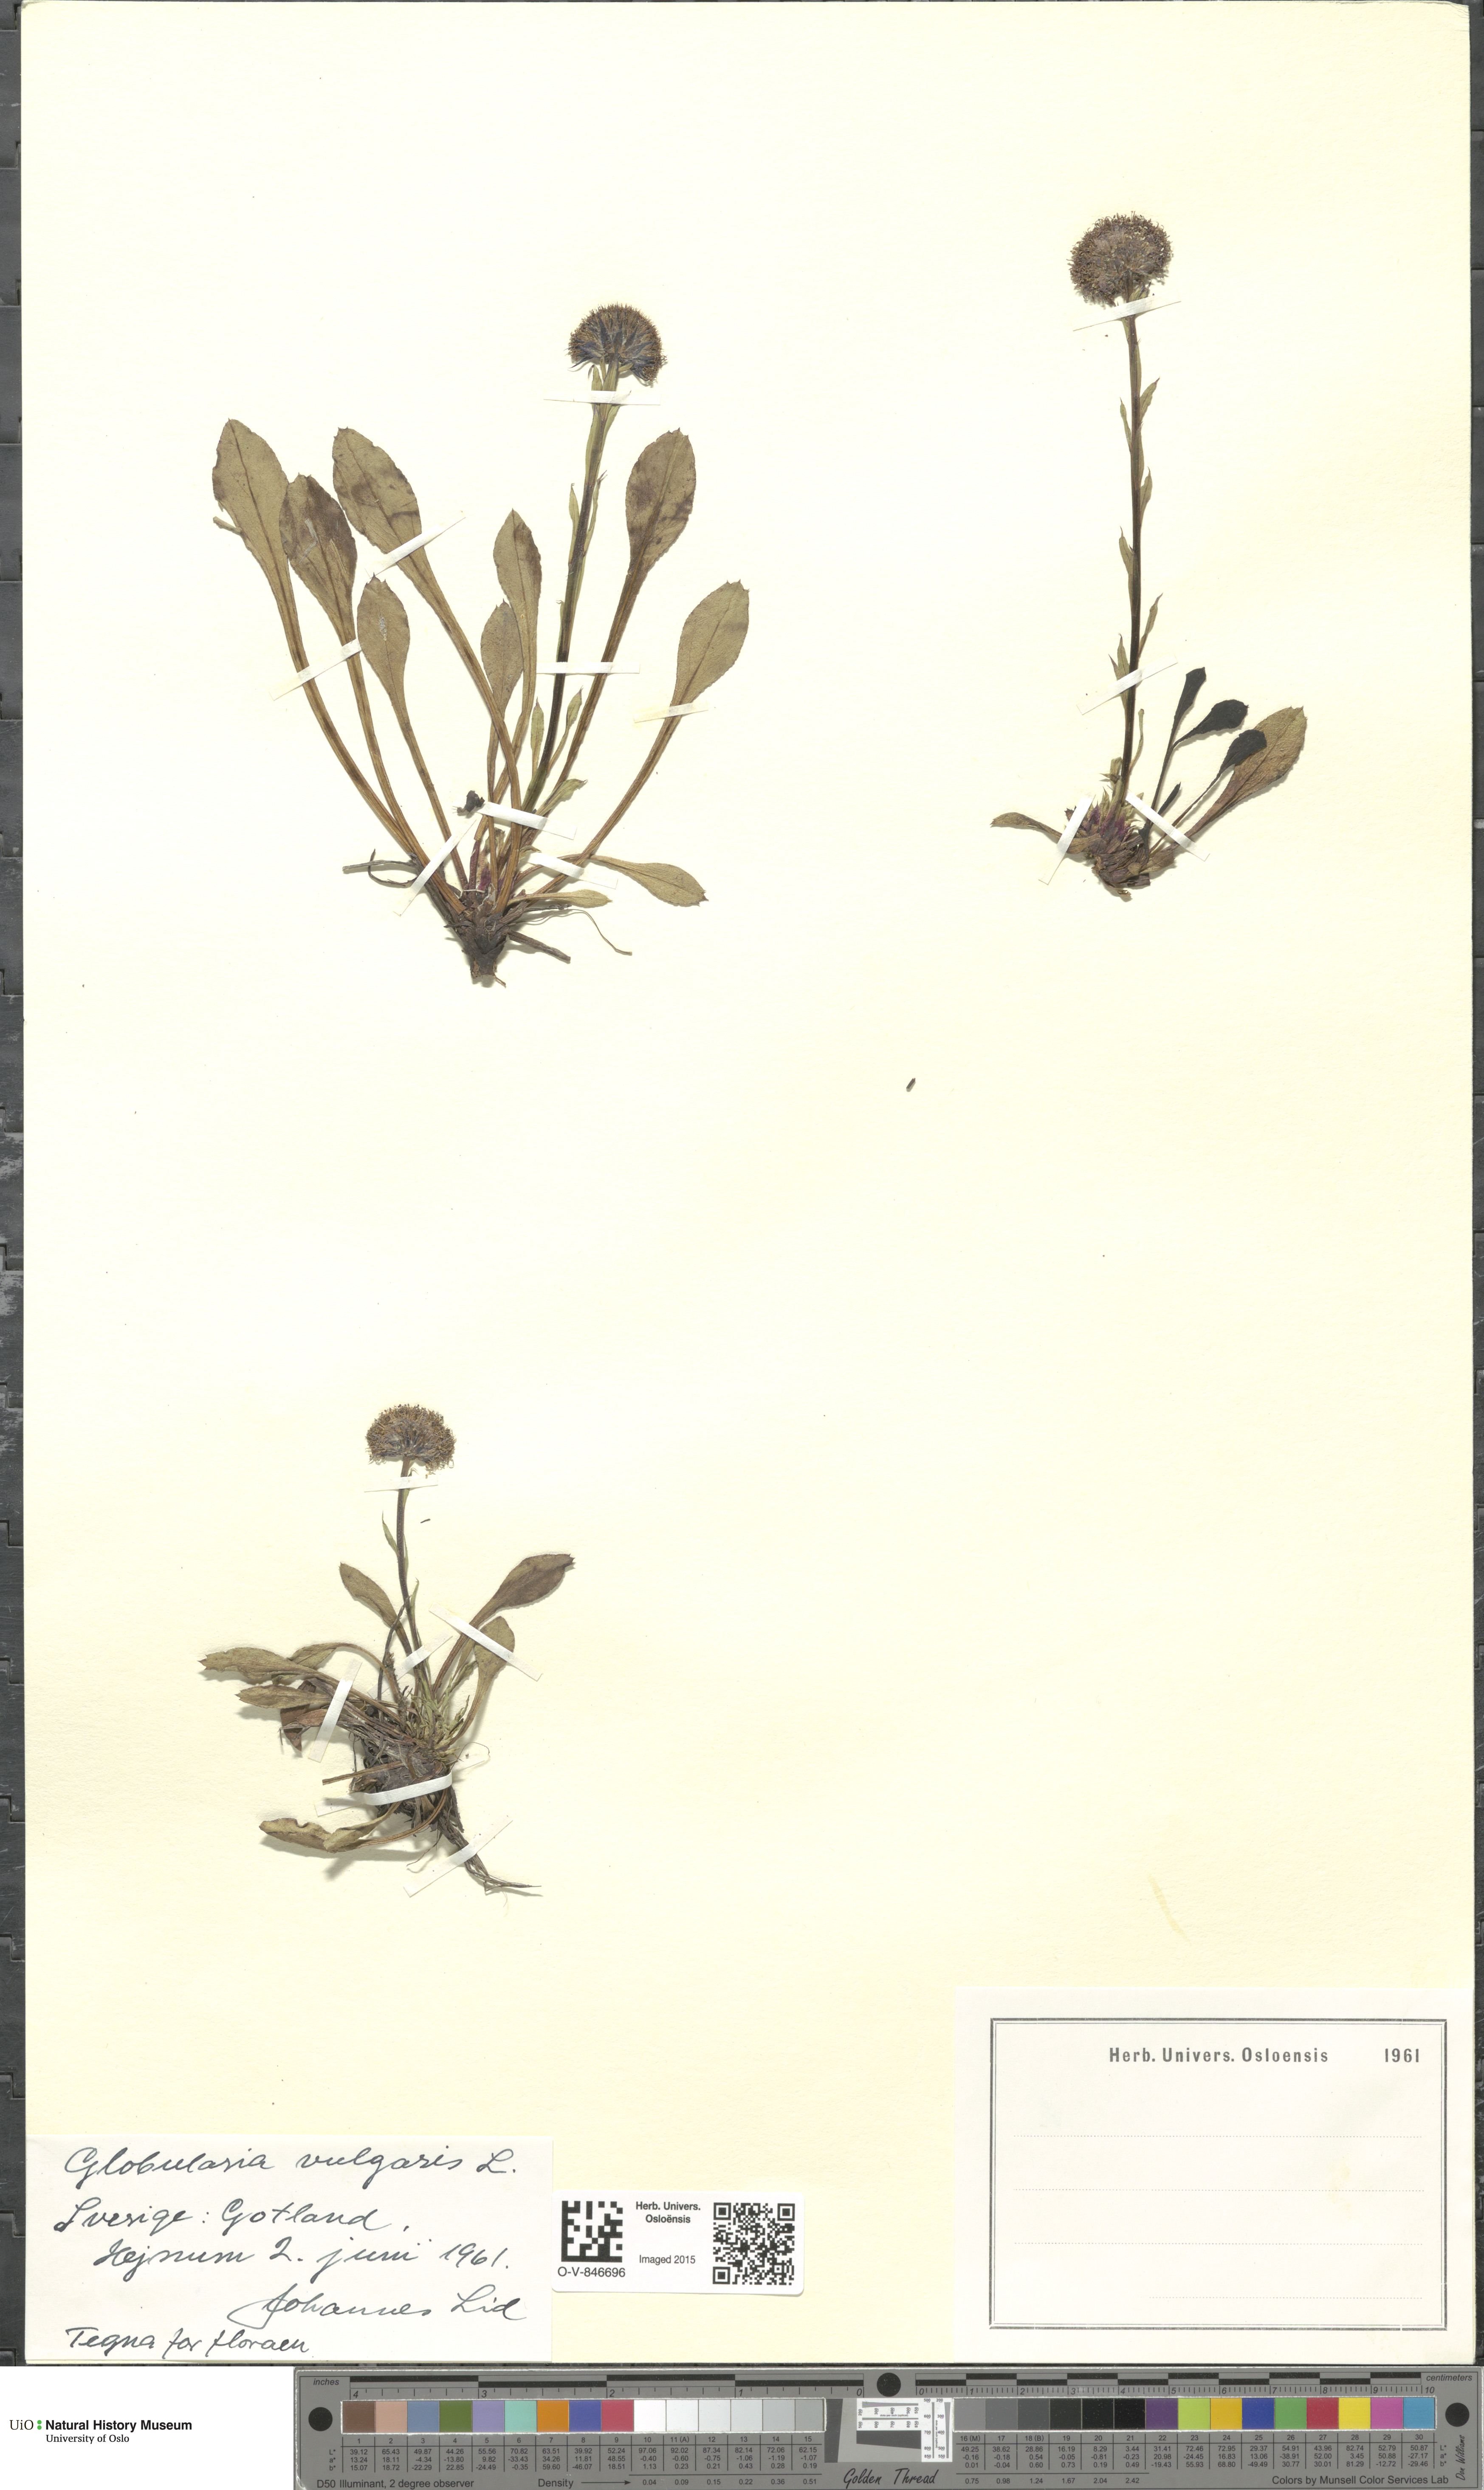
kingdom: Plantae
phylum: Tracheophyta
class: Magnoliopsida
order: Lamiales
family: Plantaginaceae
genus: Globularia
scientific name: Globularia vulgaris
